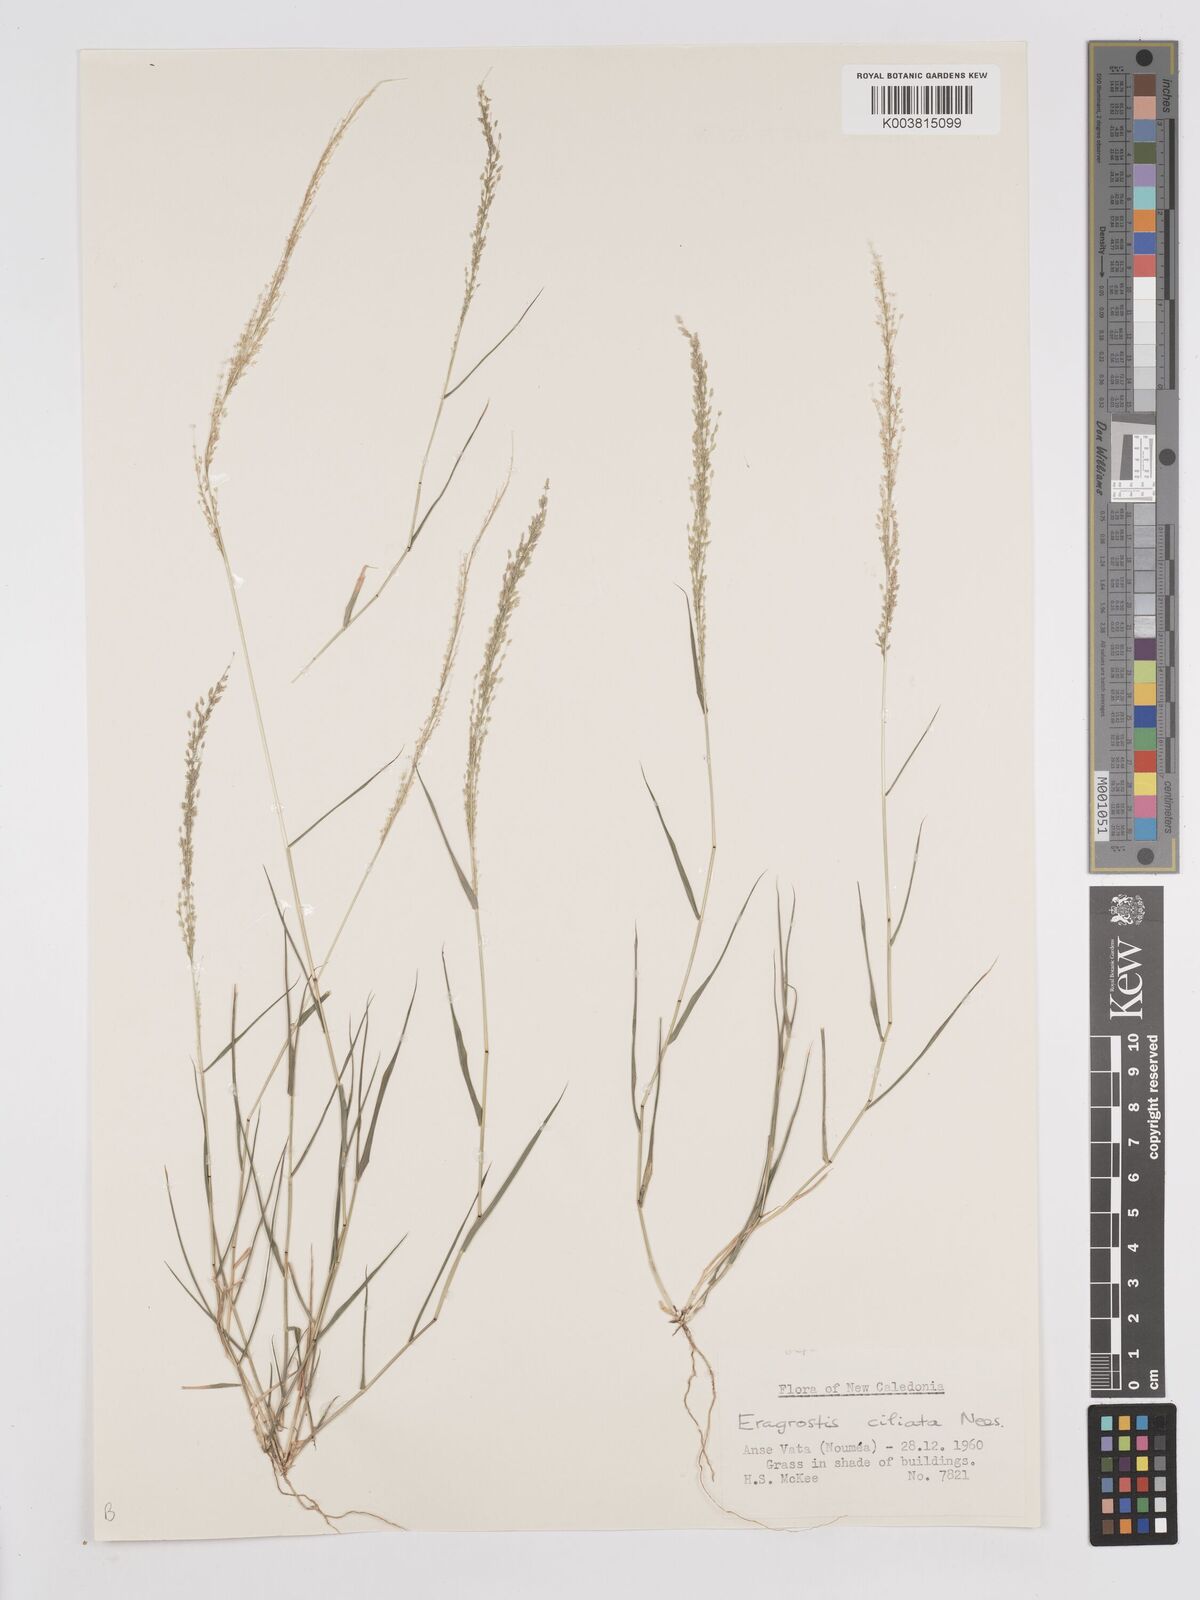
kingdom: Plantae
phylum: Tracheophyta
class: Liliopsida
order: Poales
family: Poaceae
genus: Eragrostis
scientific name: Eragrostis tenella
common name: Japanese lovegrass
